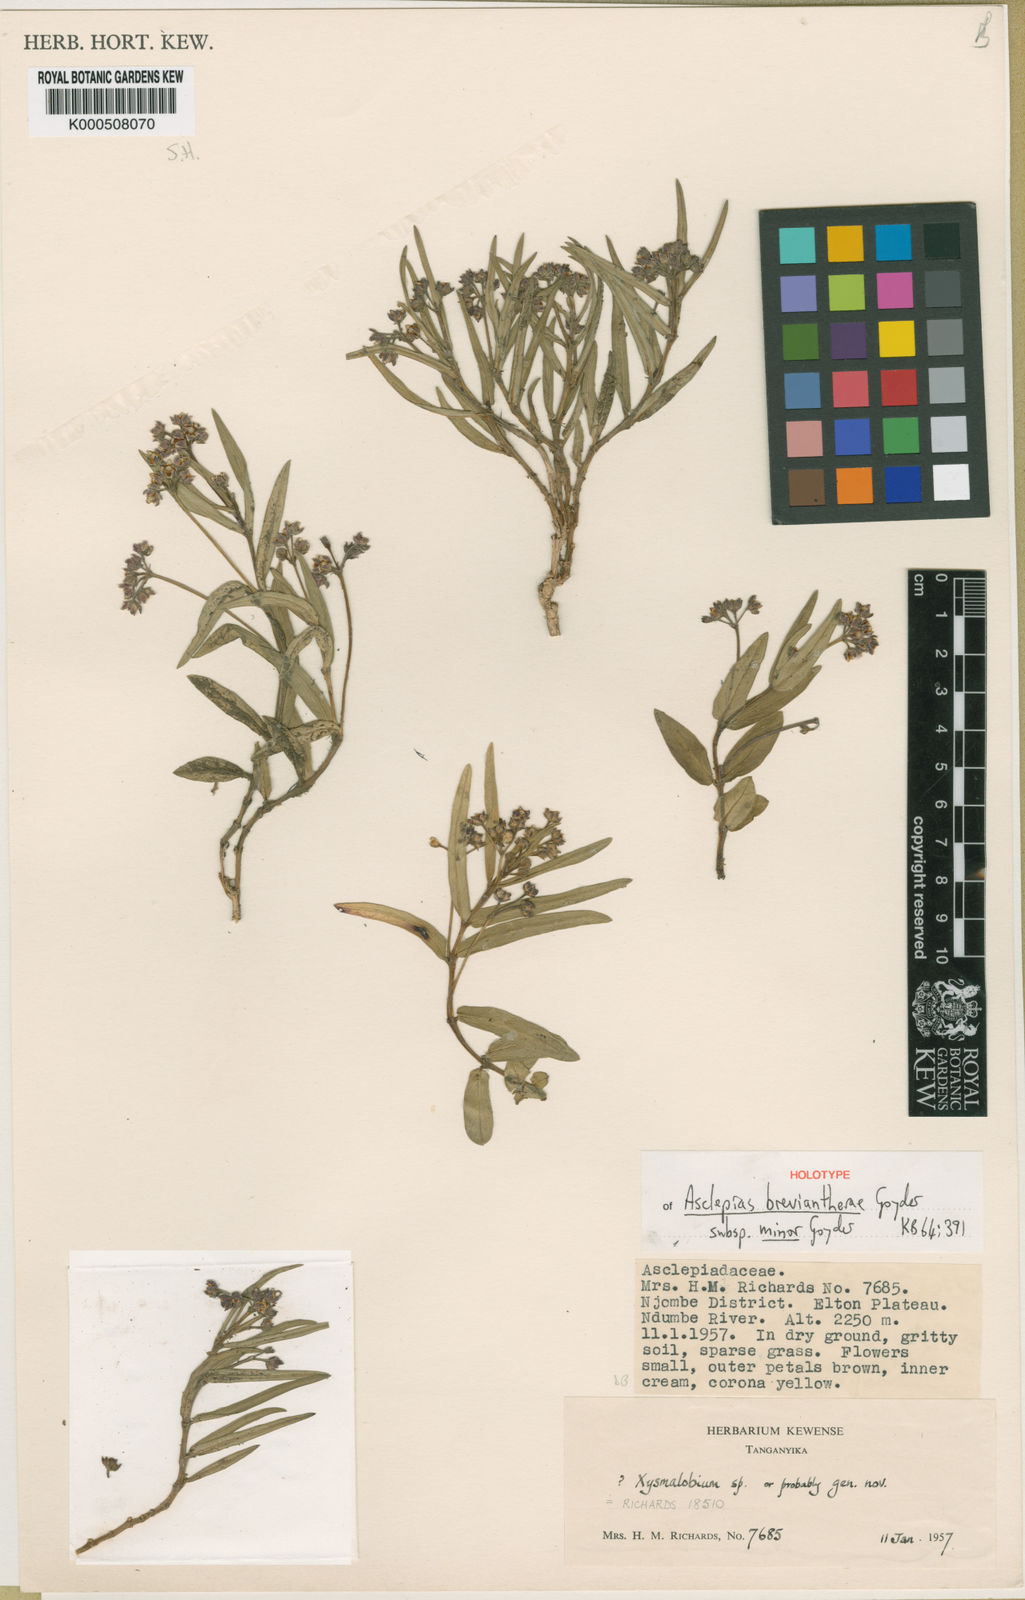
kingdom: Plantae
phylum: Tracheophyta
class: Magnoliopsida
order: Gentianales
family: Apocynaceae
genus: Asclepias
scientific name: Asclepias breviantherae
